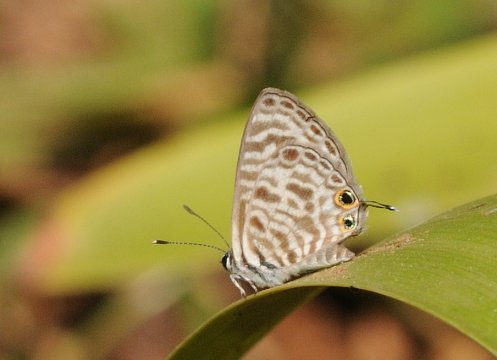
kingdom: Animalia
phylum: Arthropoda
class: Insecta
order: Lepidoptera
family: Lycaenidae
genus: Leptotes
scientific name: Leptotes pirithous
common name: Lang's Short-tailed Blue
